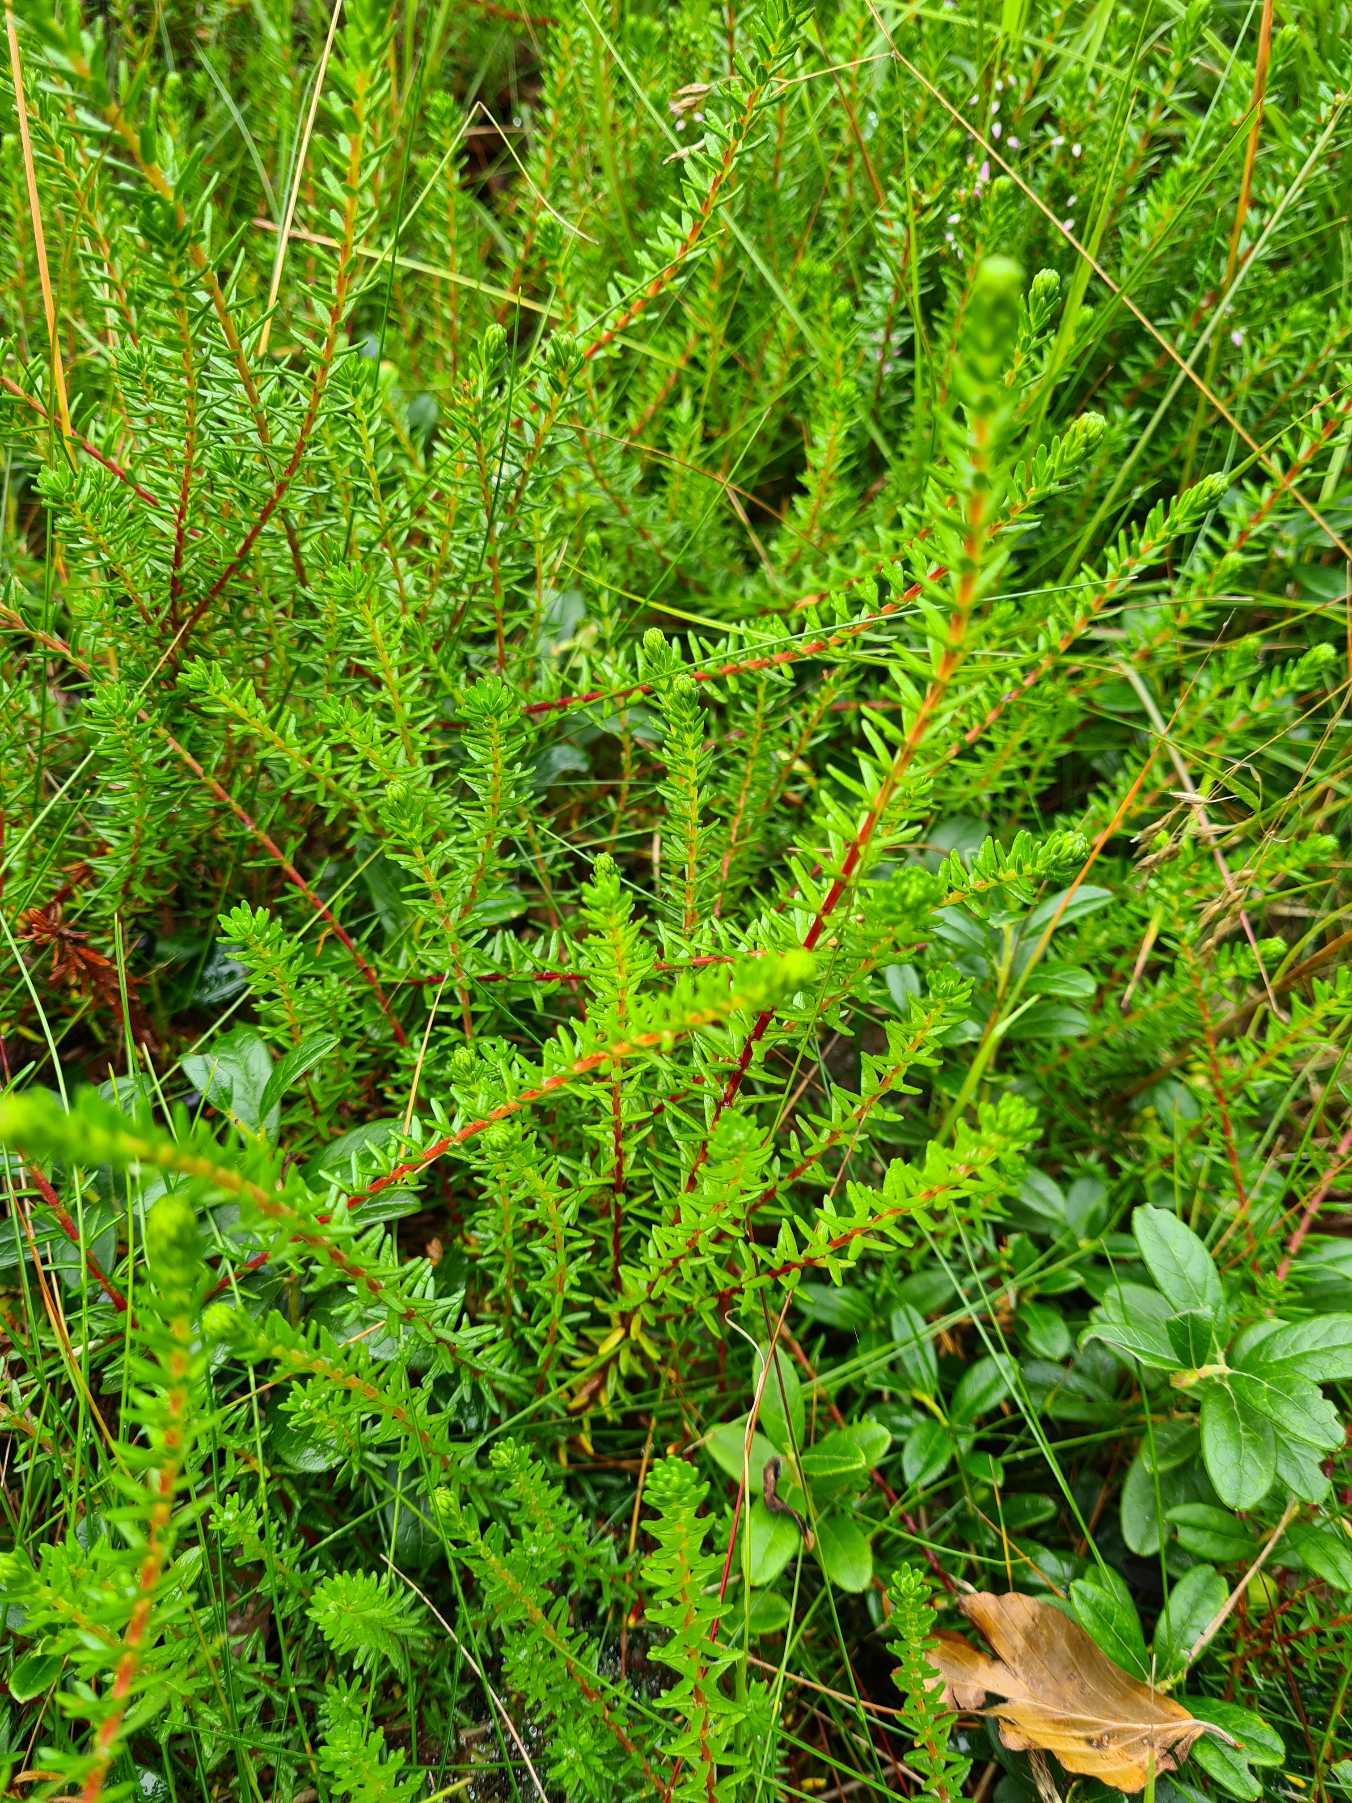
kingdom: Plantae
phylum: Tracheophyta
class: Magnoliopsida
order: Ericales
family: Ericaceae
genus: Empetrum
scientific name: Empetrum nigrum
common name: Revling
